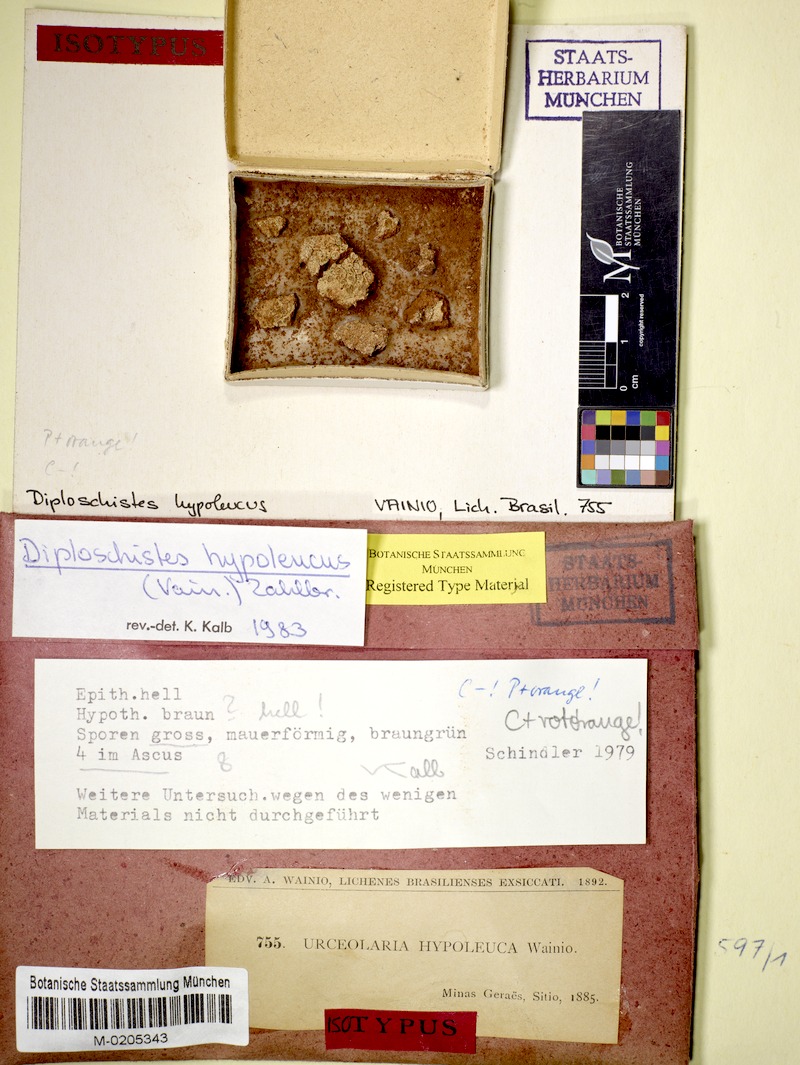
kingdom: Fungi
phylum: Ascomycota
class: Lecanoromycetes
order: Ostropales
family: Graphidaceae
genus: Diploschistes
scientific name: Diploschistes hypoleucus
